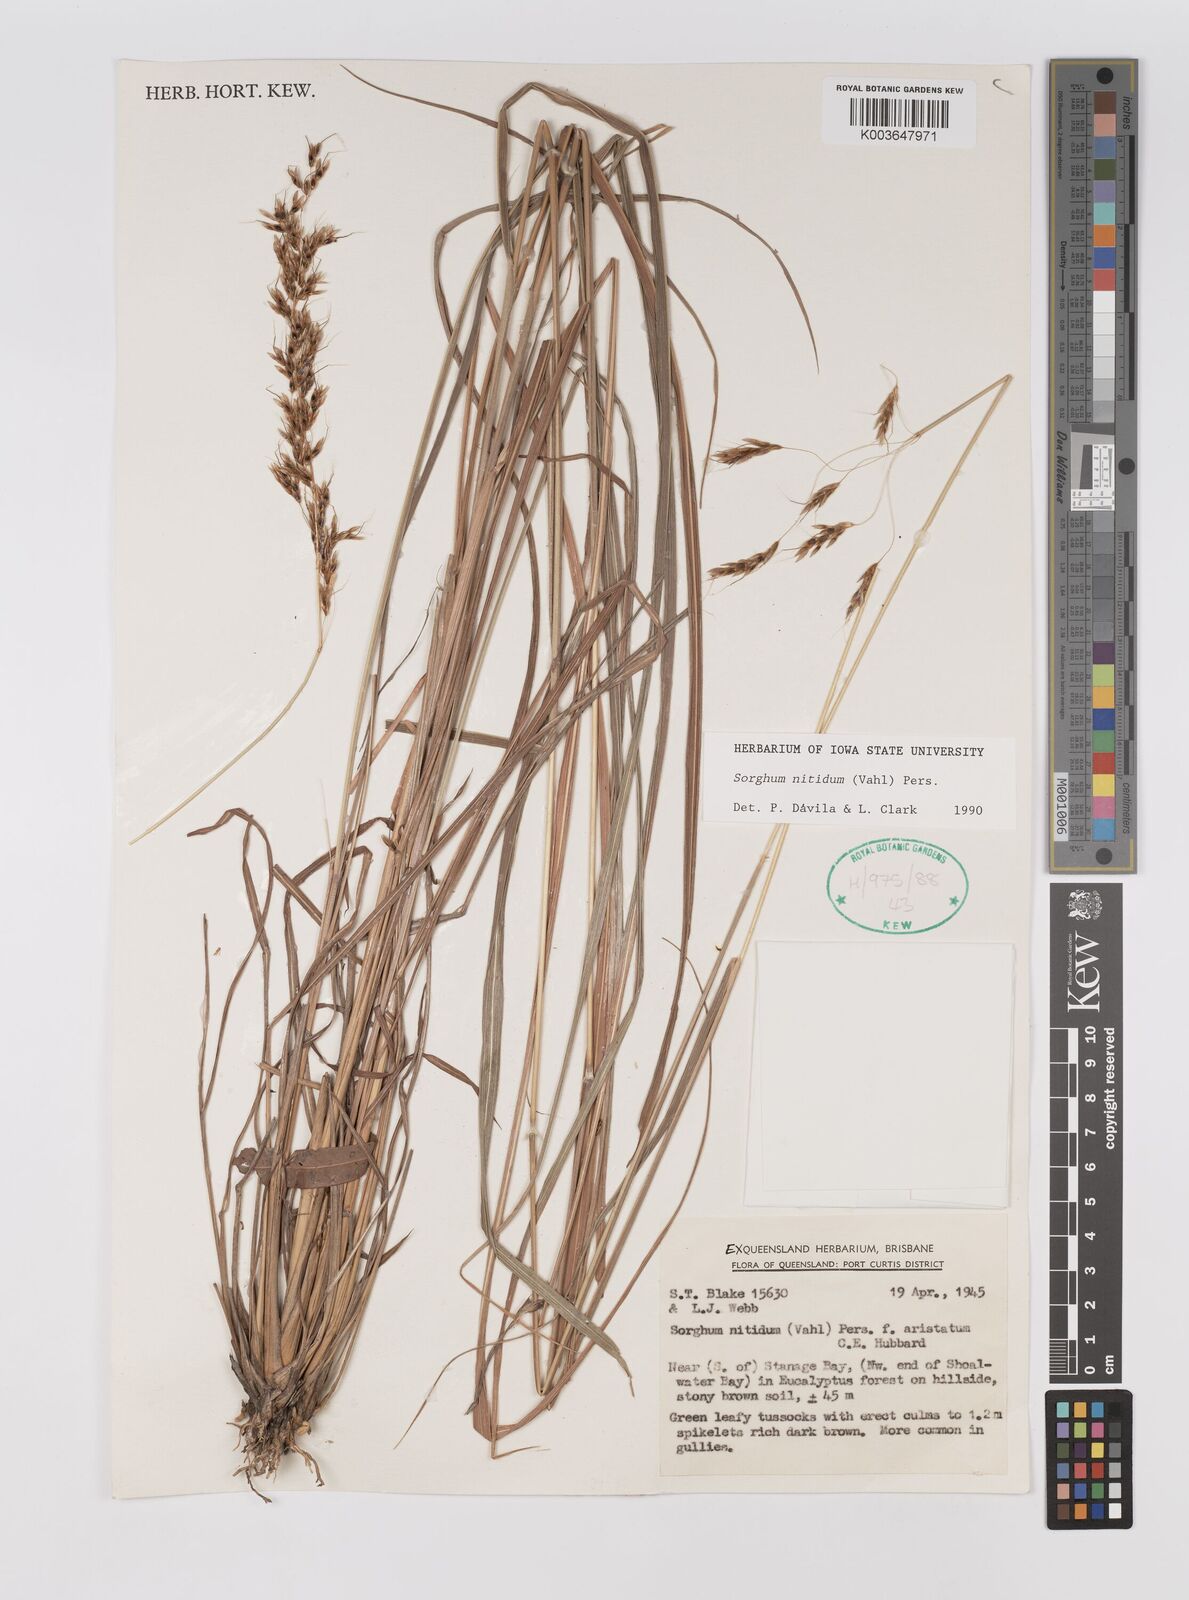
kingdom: Plantae
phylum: Tracheophyta
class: Liliopsida
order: Poales
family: Poaceae
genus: Sorghum
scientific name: Sorghum nitidum
